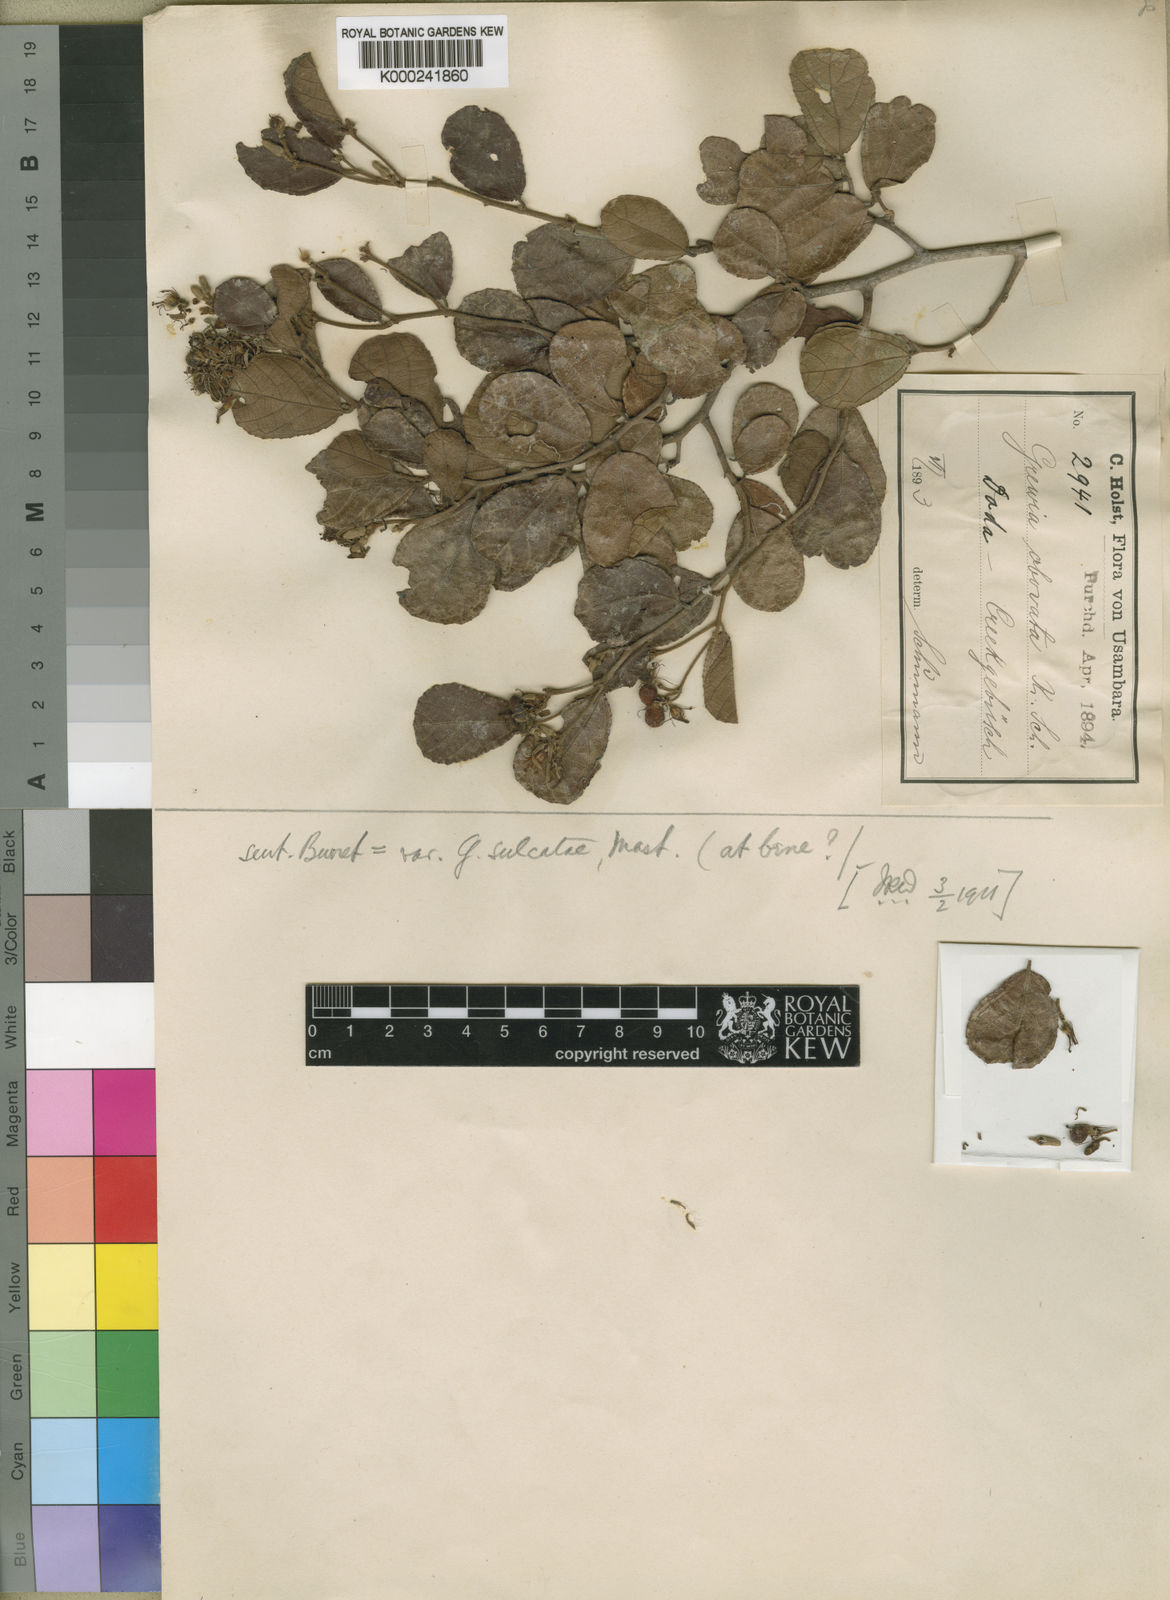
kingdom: Plantae
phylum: Tracheophyta
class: Magnoliopsida
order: Malvales
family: Malvaceae
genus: Grewia
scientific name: Grewia
